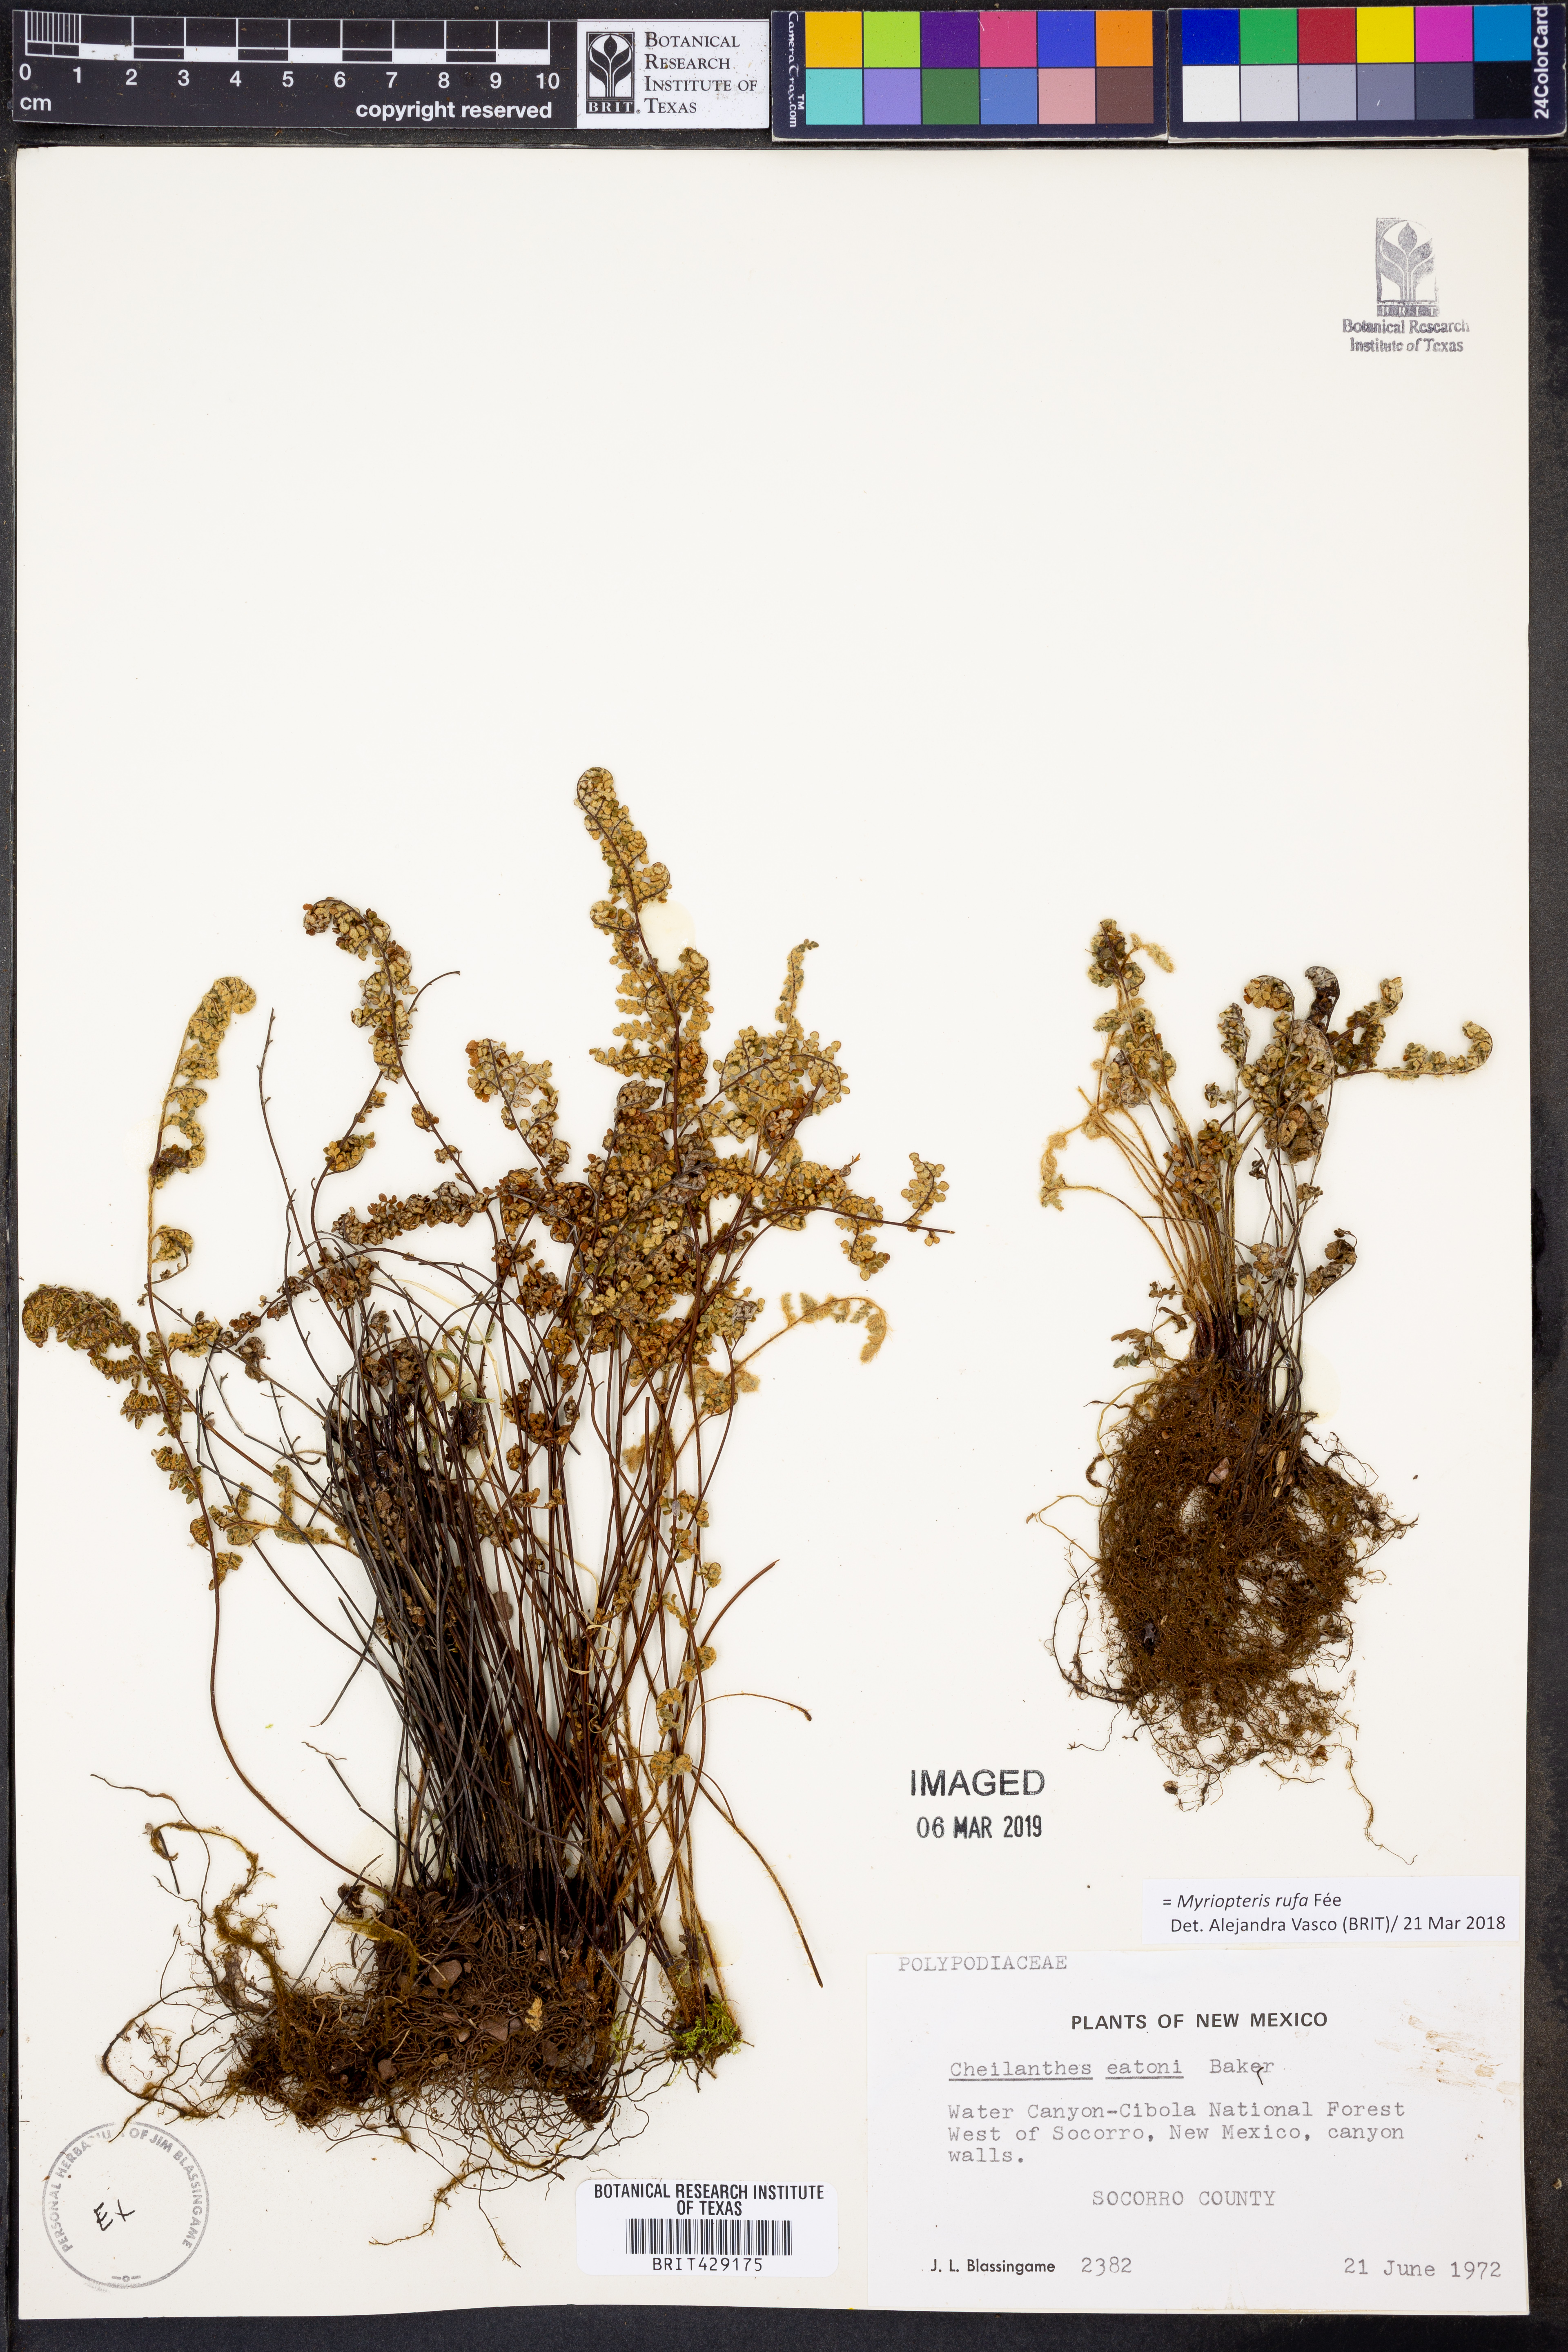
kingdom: Plantae
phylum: Tracheophyta
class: Polypodiopsida
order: Polypodiales
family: Pteridaceae
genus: Myriopteris
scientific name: Myriopteris rufa
